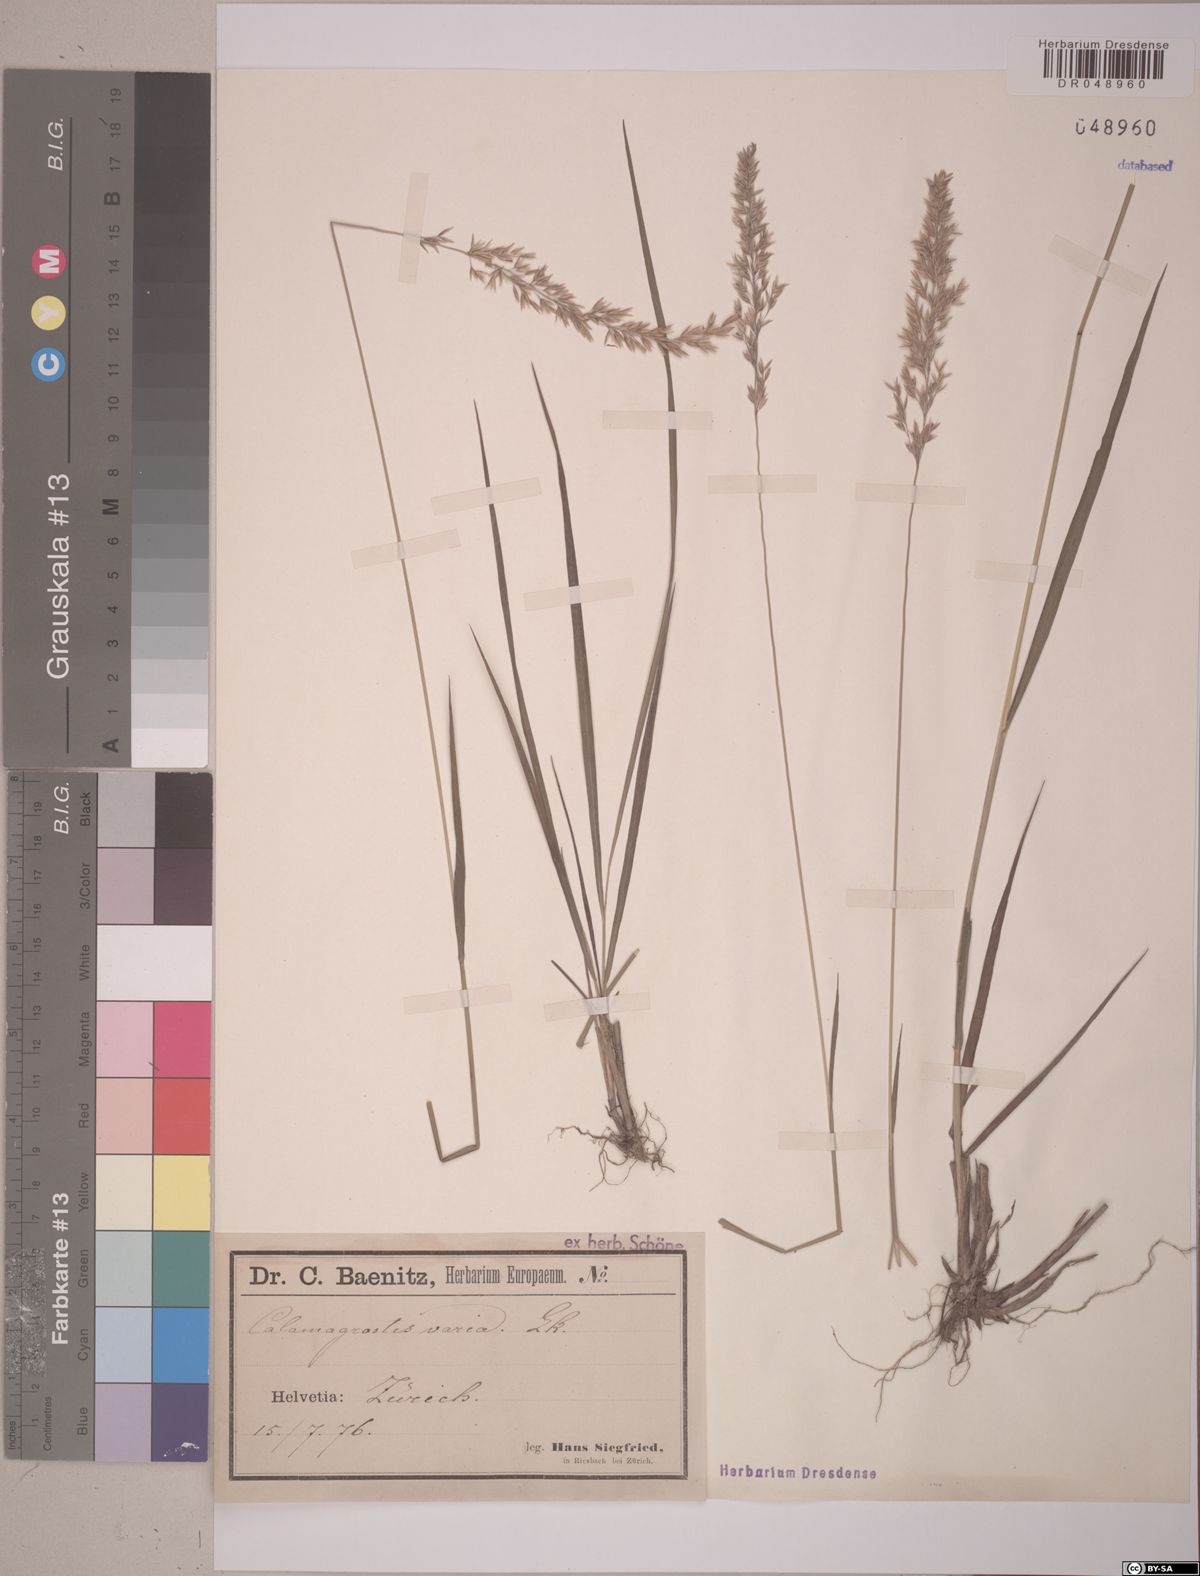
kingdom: Plantae
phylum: Tracheophyta
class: Liliopsida
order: Poales
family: Poaceae
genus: Calamagrostis
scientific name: Calamagrostis varia
